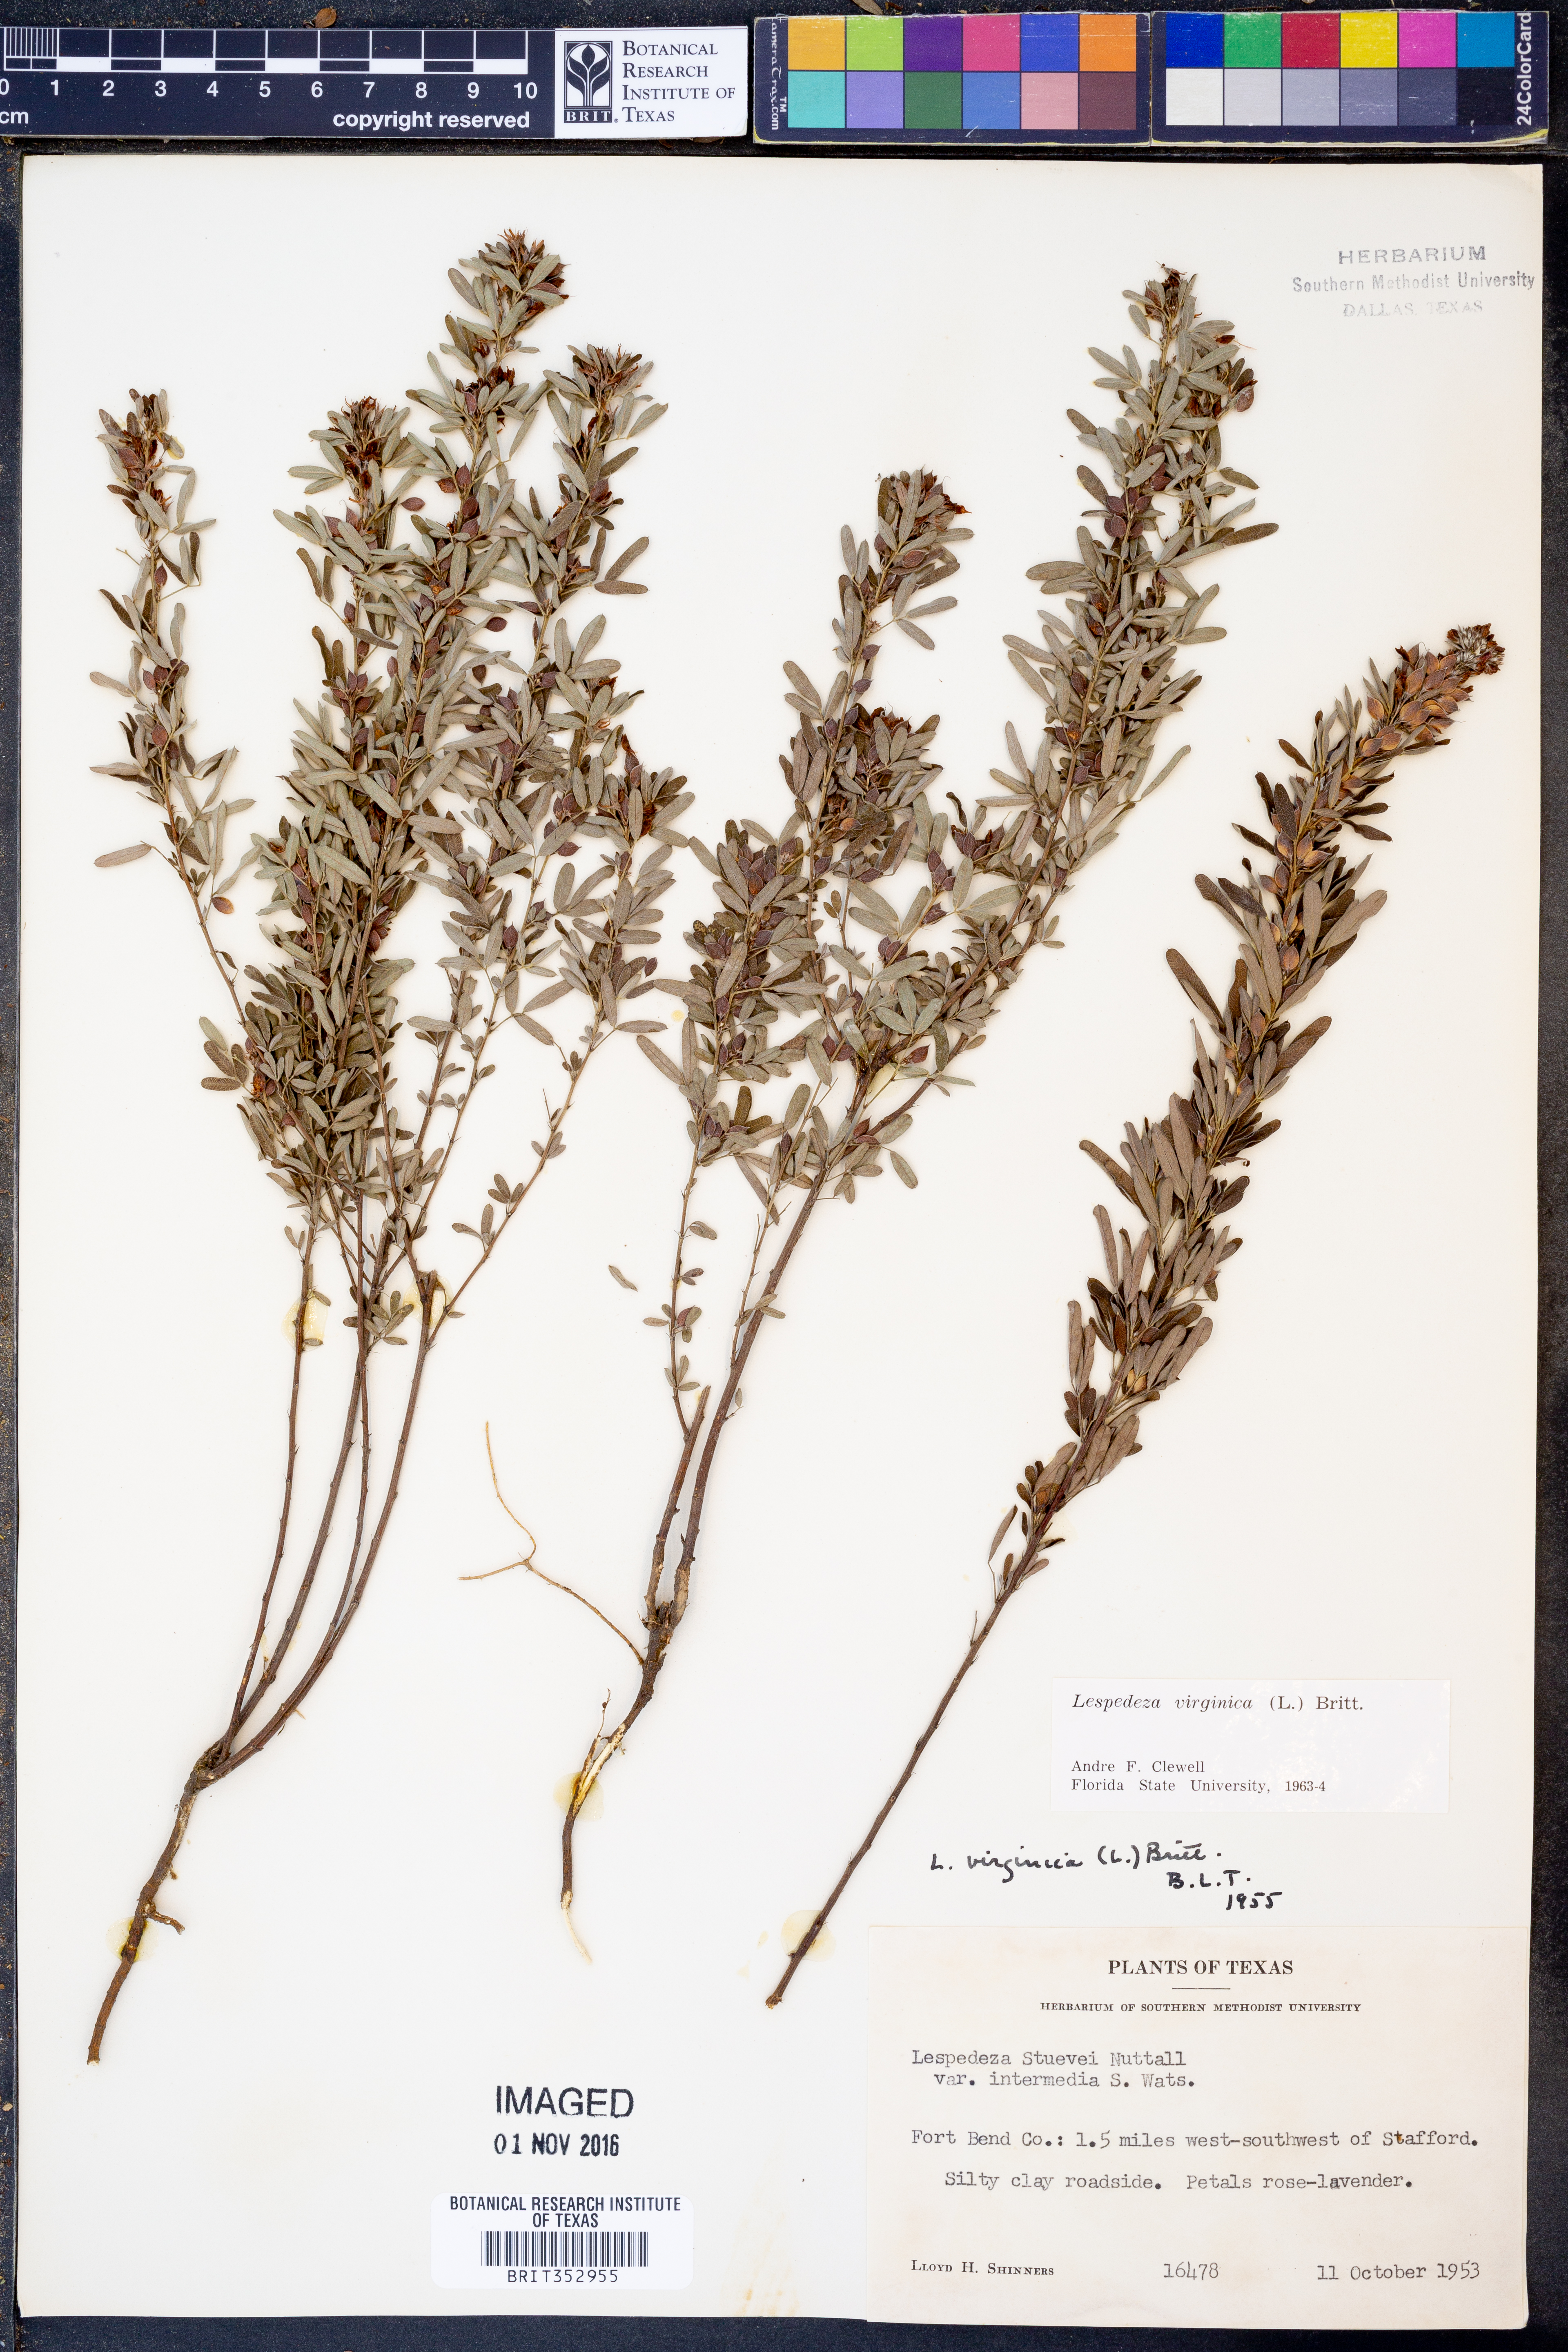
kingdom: Plantae
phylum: Tracheophyta
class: Magnoliopsida
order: Fabales
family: Fabaceae
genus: Lespedeza
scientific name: Lespedeza virginica
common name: Slender bush-clover
